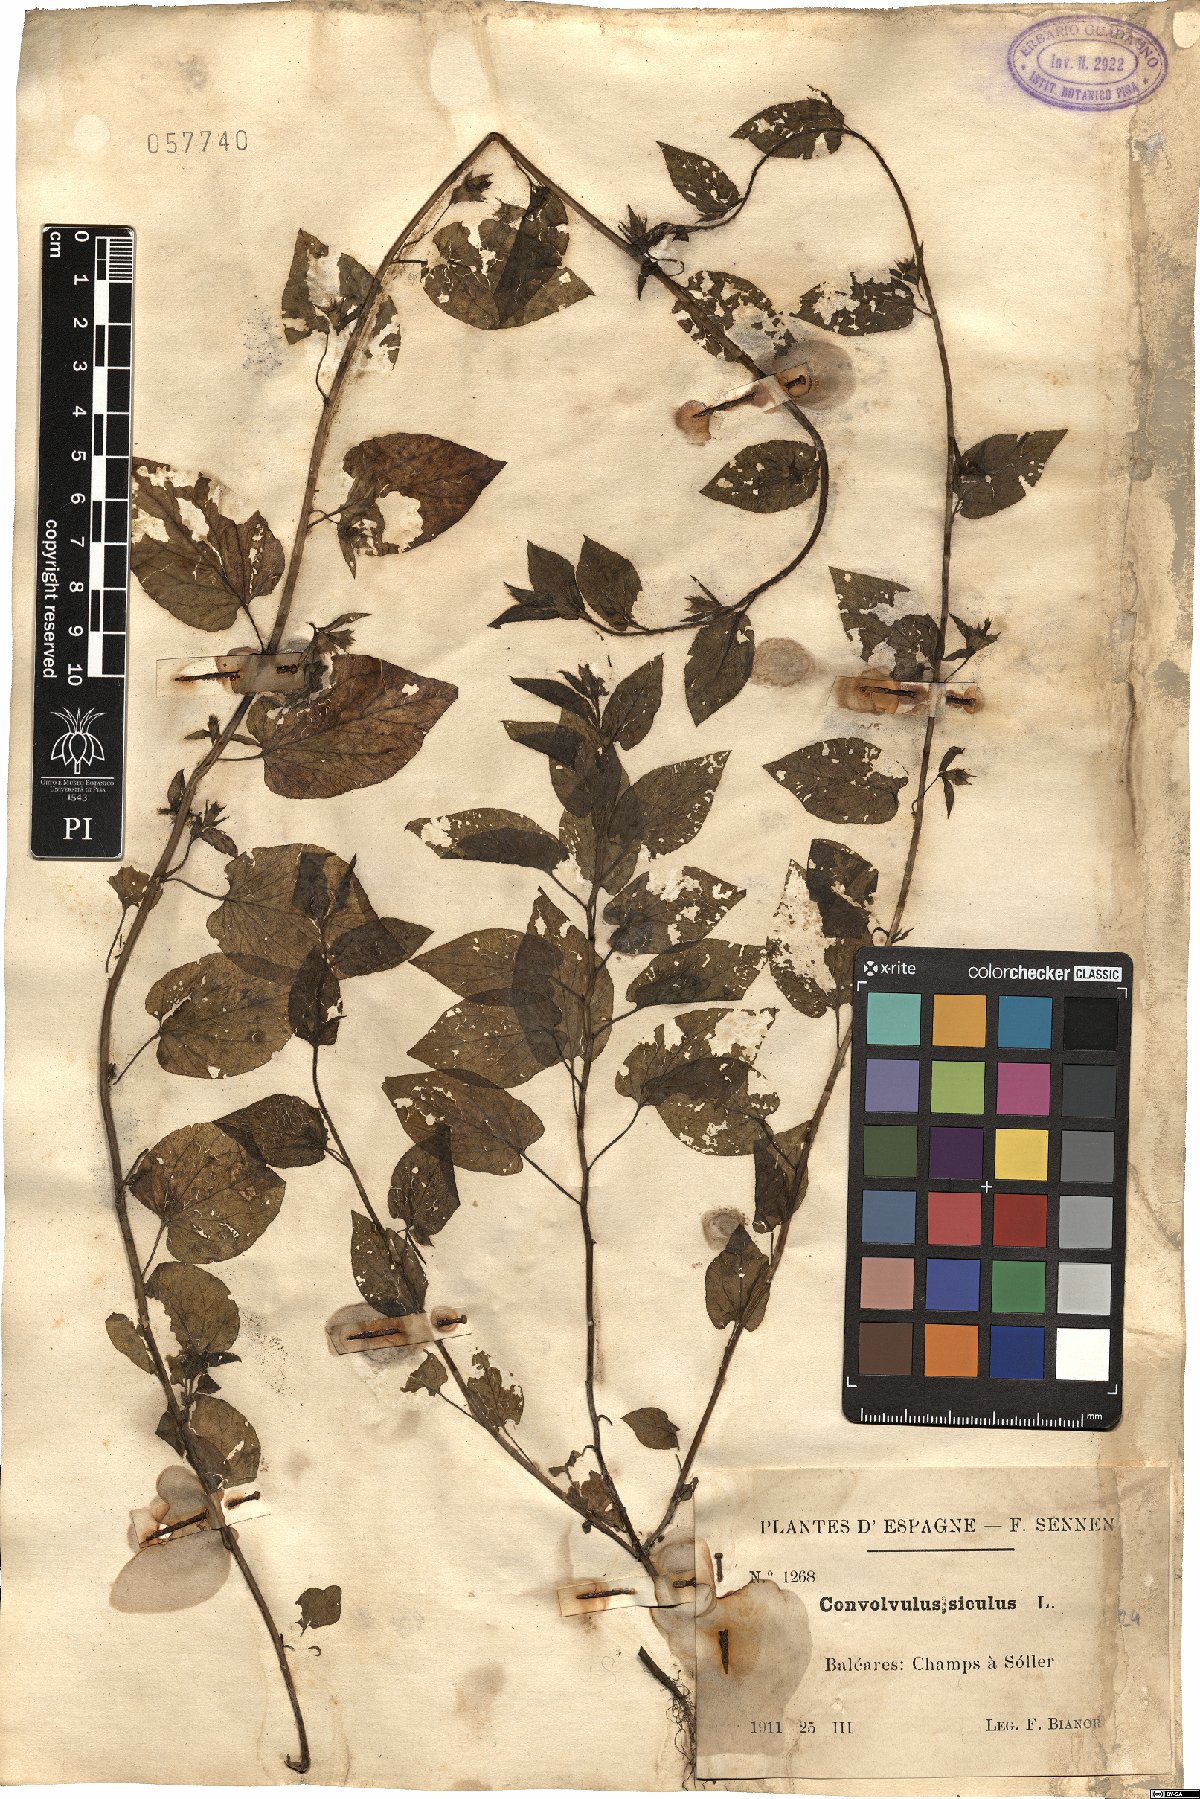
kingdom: Plantae
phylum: Tracheophyta
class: Magnoliopsida
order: Solanales
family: Convolvulaceae
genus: Convolvulus
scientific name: Convolvulus siculus
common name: Small blue-convolvulus
